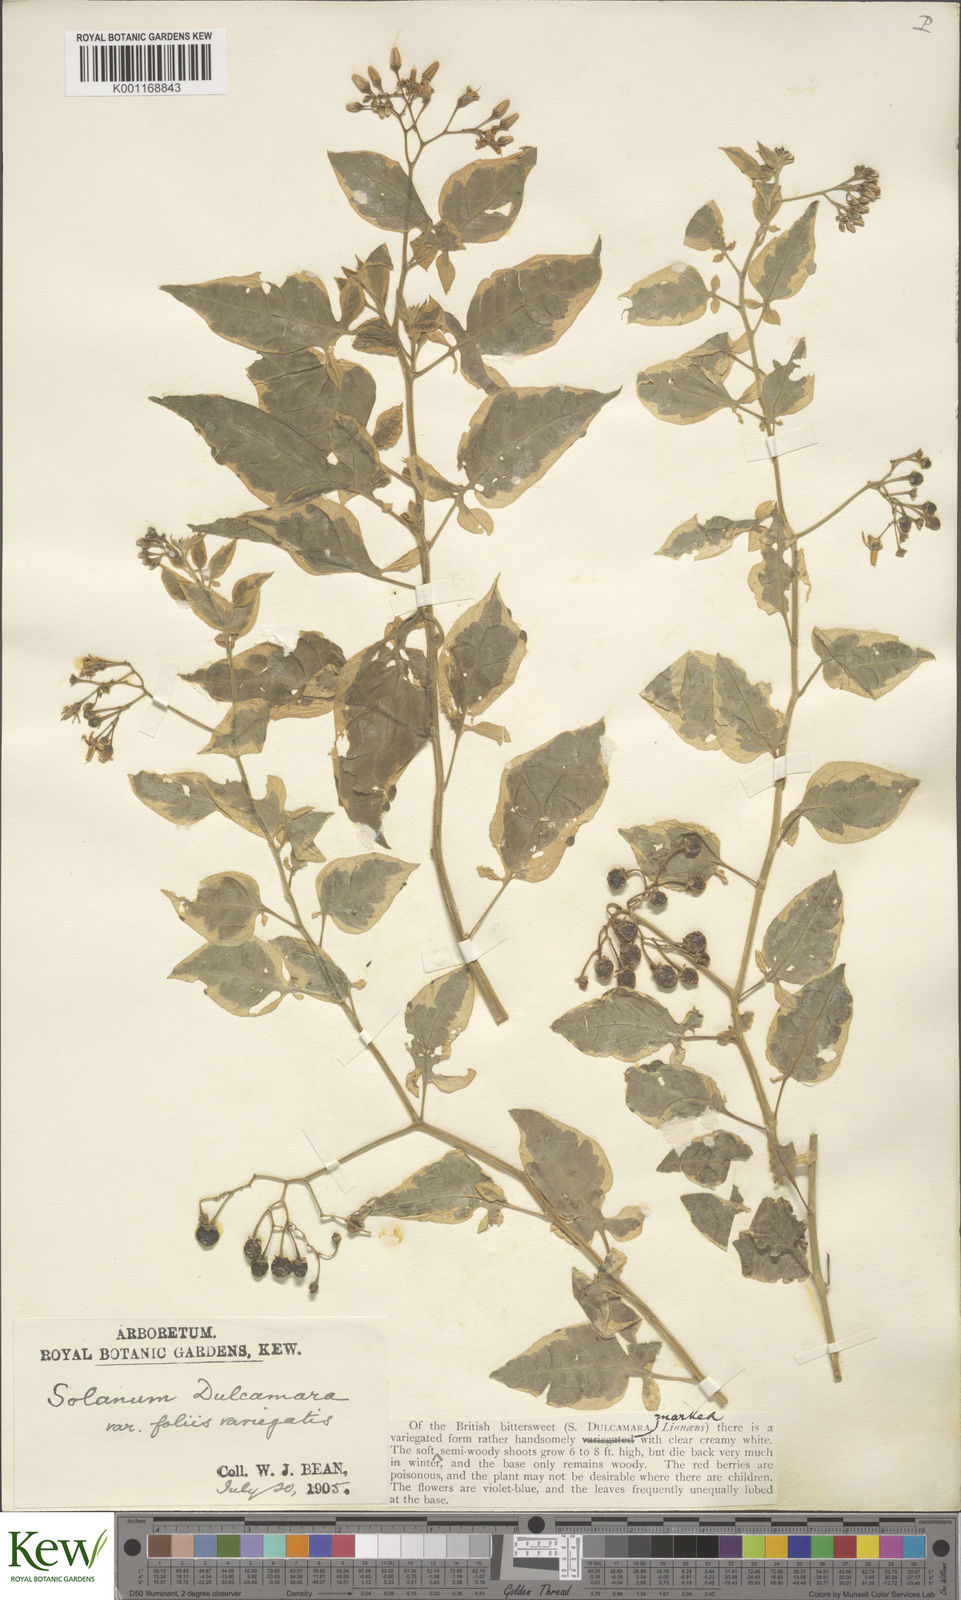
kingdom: Plantae
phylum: Tracheophyta
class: Magnoliopsida
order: Solanales
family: Solanaceae
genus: Solanum
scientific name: Solanum dulcamara
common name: Climbing nightshade
